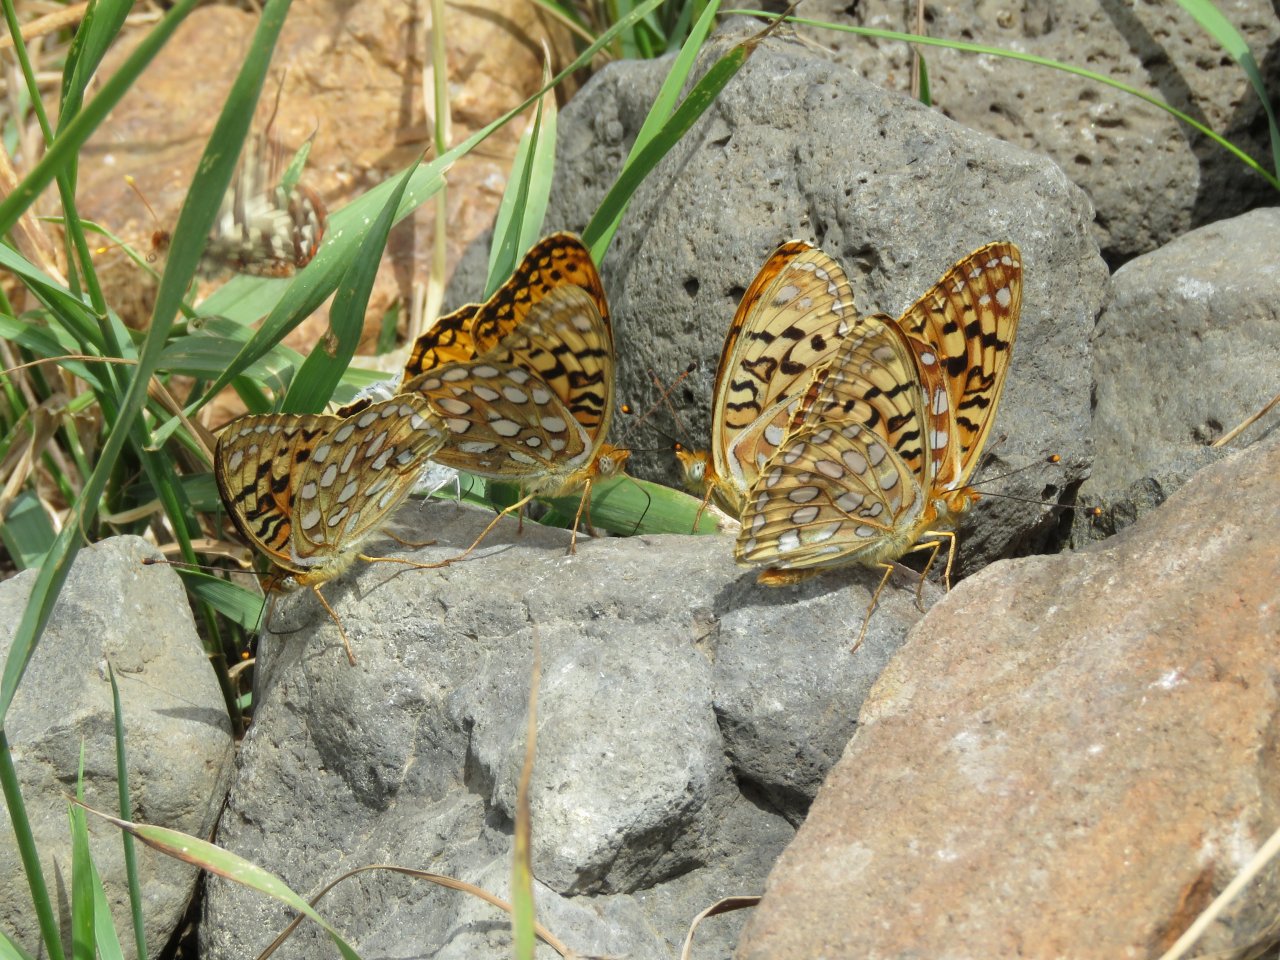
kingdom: Animalia
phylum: Arthropoda
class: Insecta
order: Lepidoptera
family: Nymphalidae
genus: Speyeria
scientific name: Speyeria coronis
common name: Coronis Fritillary
